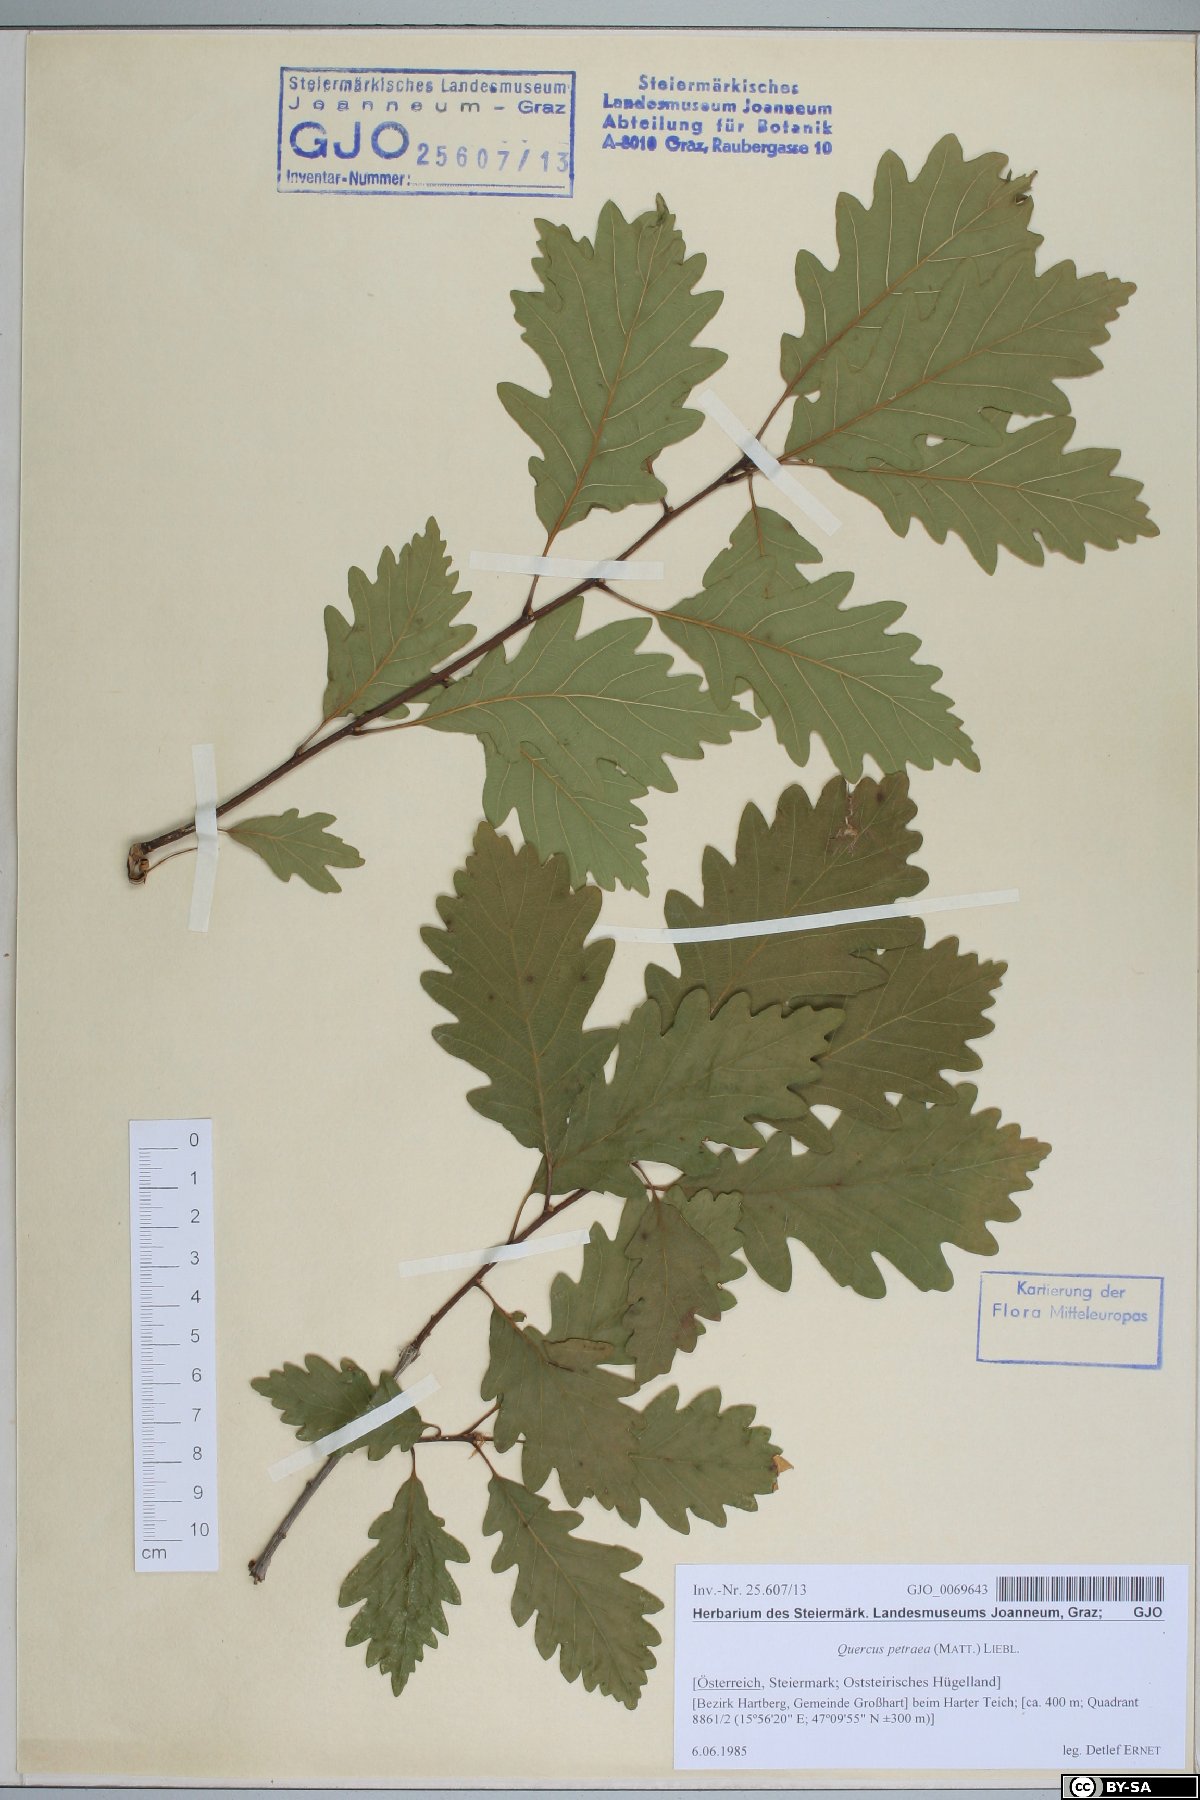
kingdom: Plantae
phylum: Tracheophyta
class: Magnoliopsida
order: Fagales
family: Fagaceae
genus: Quercus
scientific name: Quercus petraea
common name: Sessile oak
